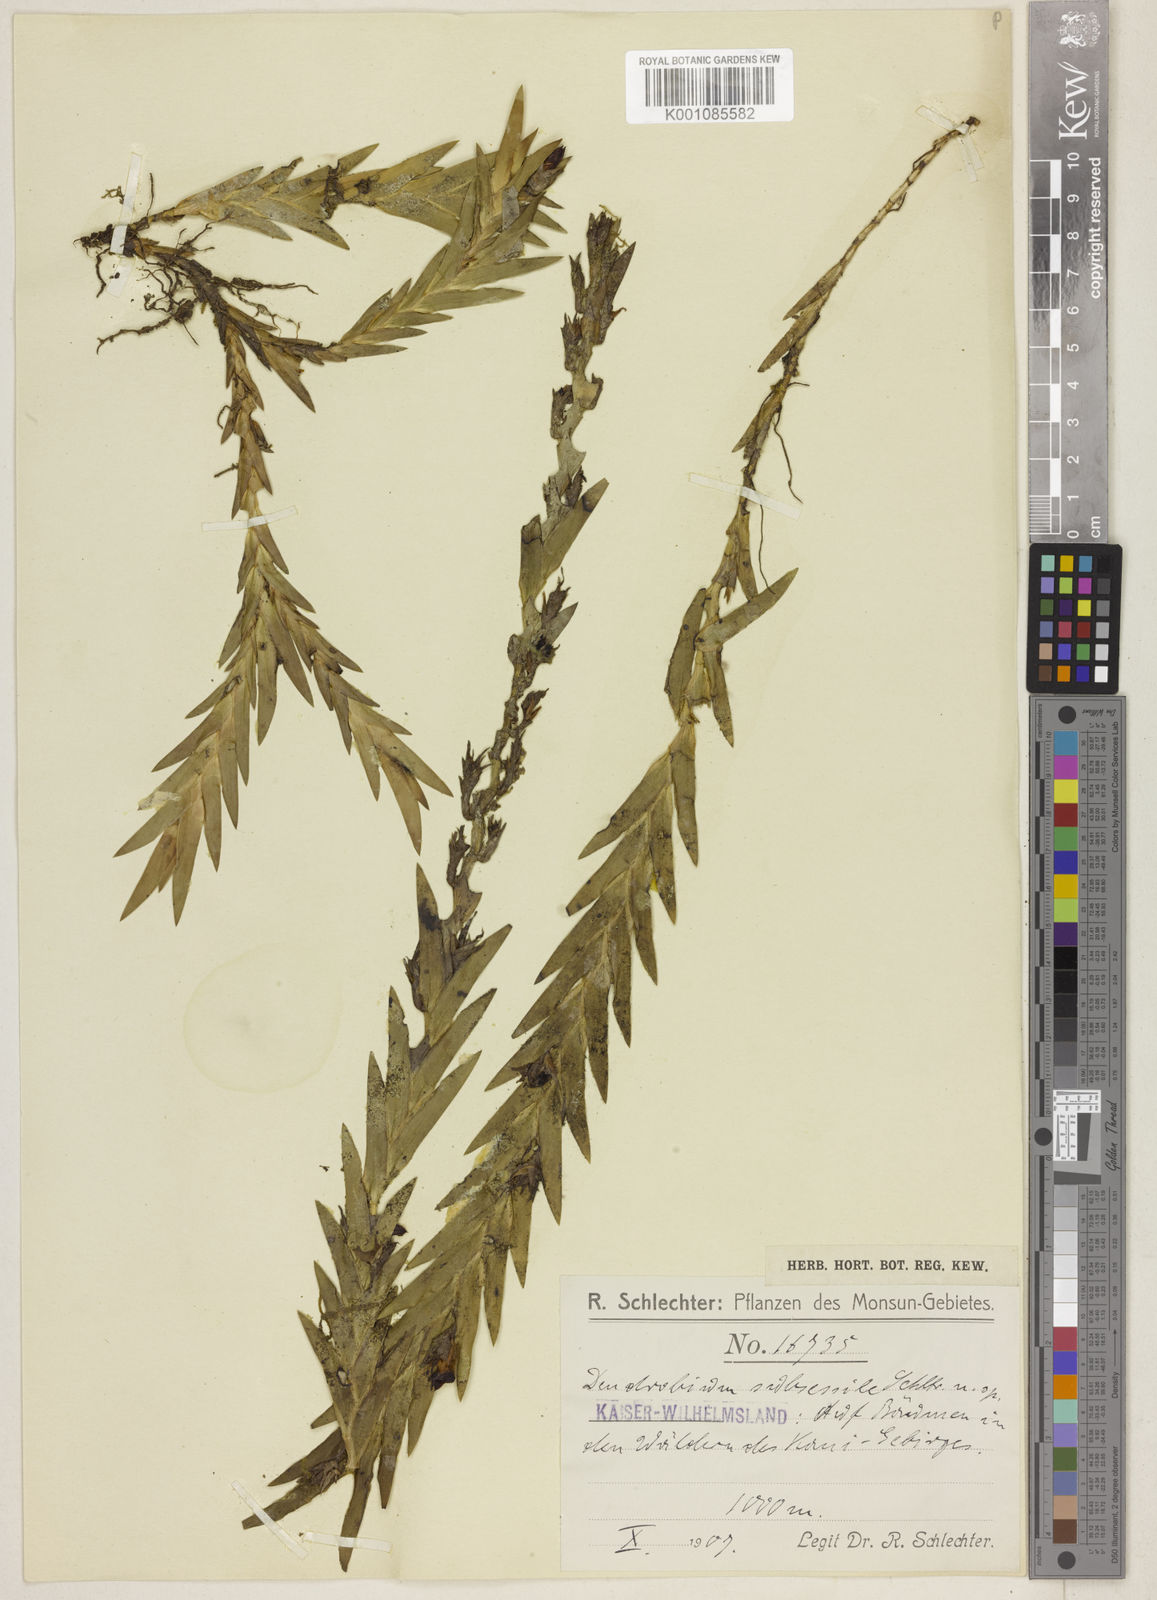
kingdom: Plantae
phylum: Tracheophyta
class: Liliopsida
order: Asparagales
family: Orchidaceae
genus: Oxystophyllum
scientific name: Oxystophyllum subsessile
